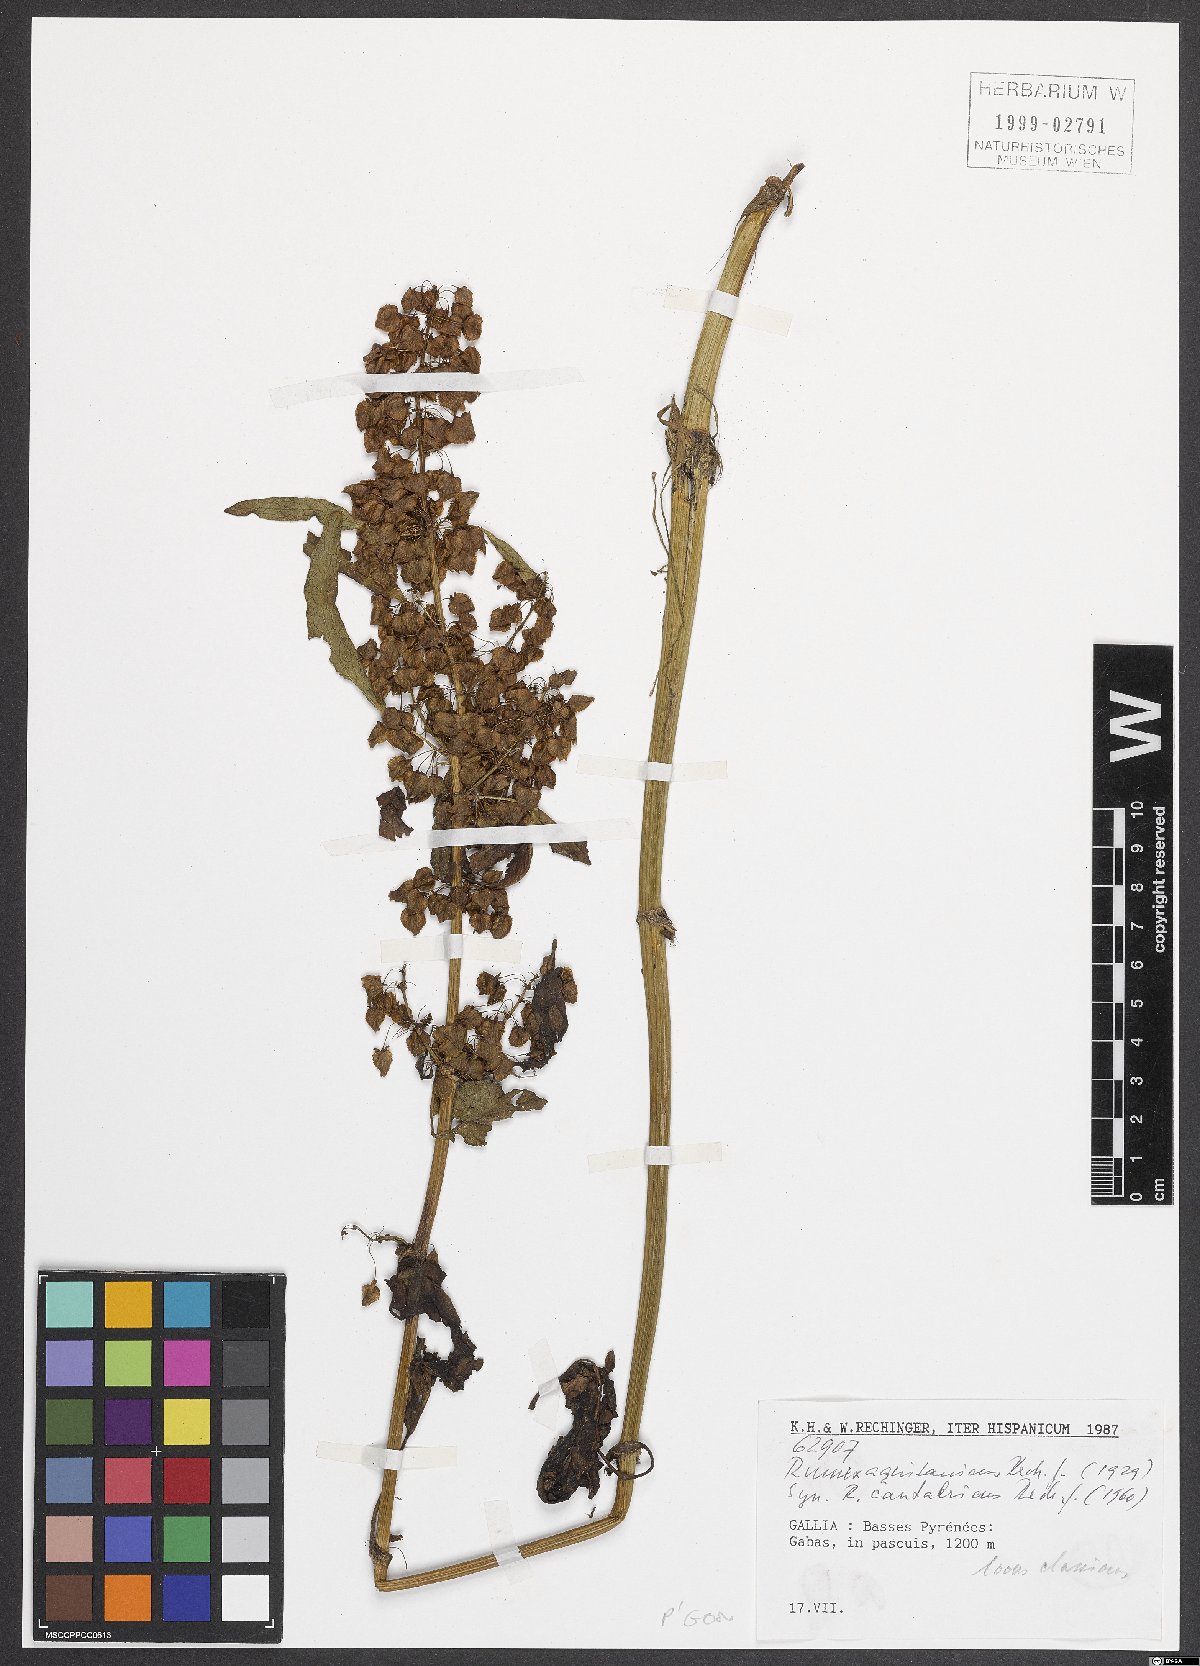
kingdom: Plantae
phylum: Tracheophyta
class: Magnoliopsida
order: Caryophyllales
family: Polygonaceae
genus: Rumex
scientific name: Rumex aquitanicus
